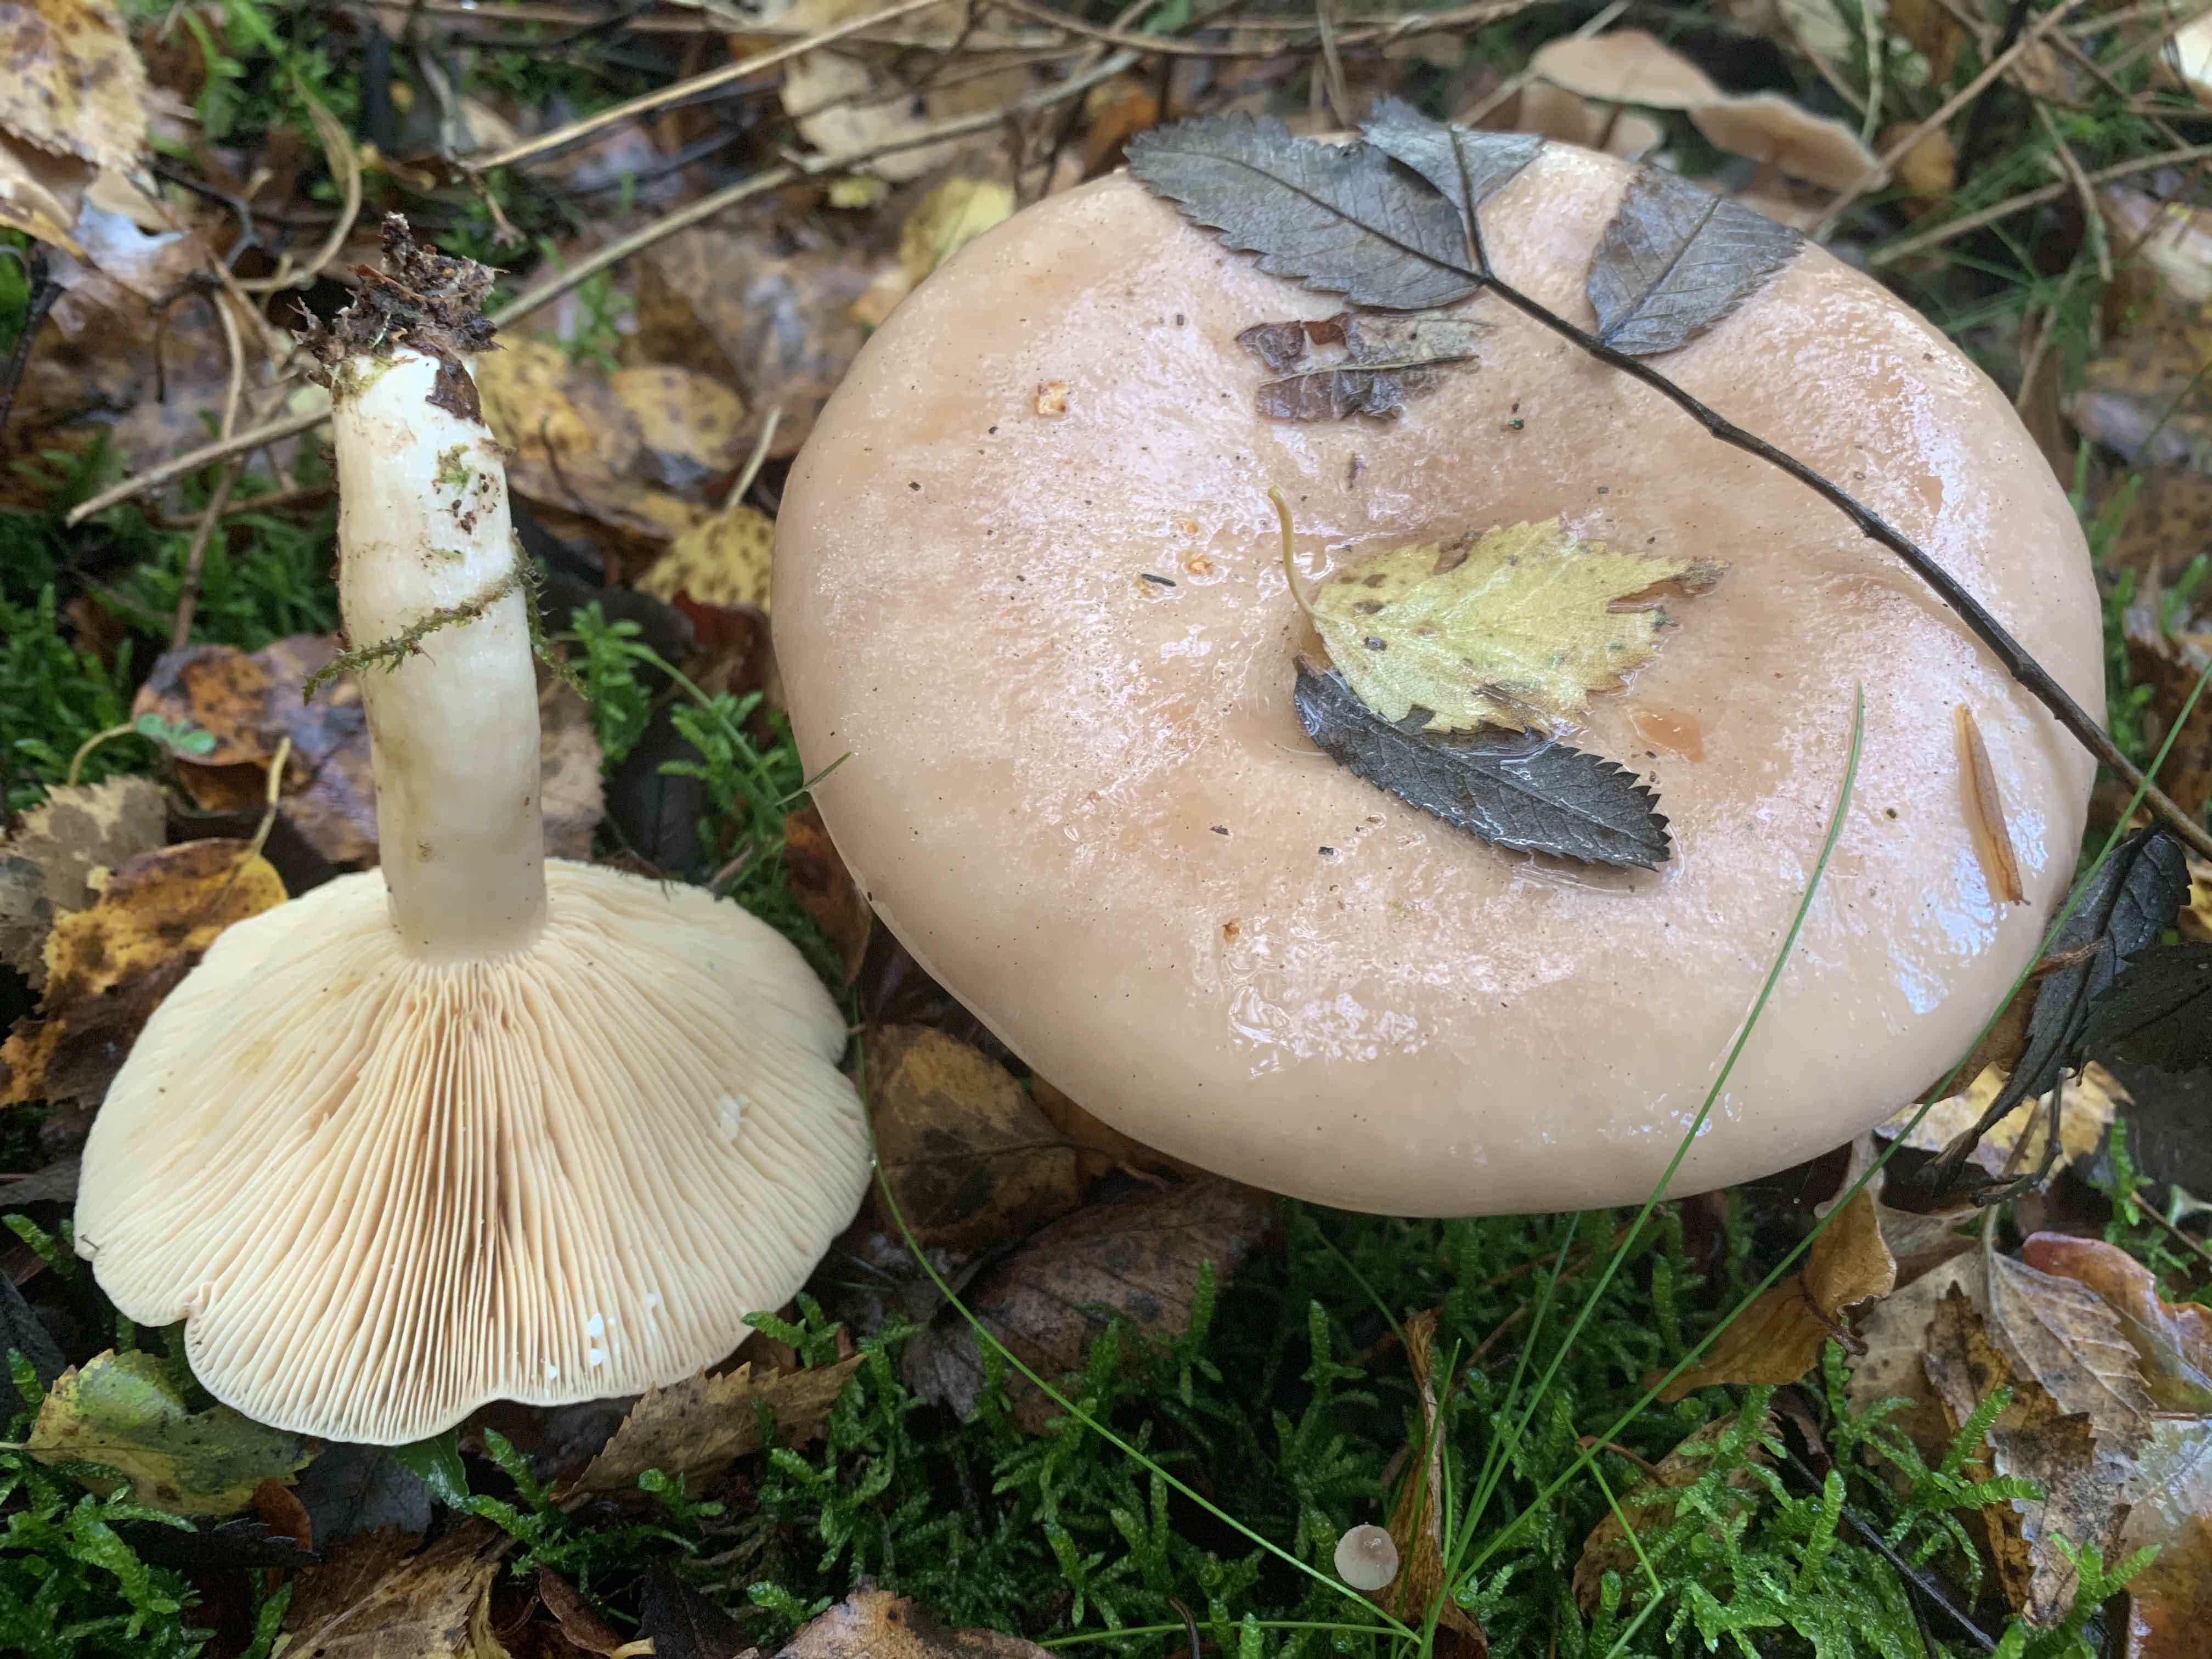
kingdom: Fungi
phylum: Basidiomycota
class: Agaricomycetes
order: Russulales
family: Russulaceae
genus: Lactarius
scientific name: Lactarius trivialis
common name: nordisk mælkehat
